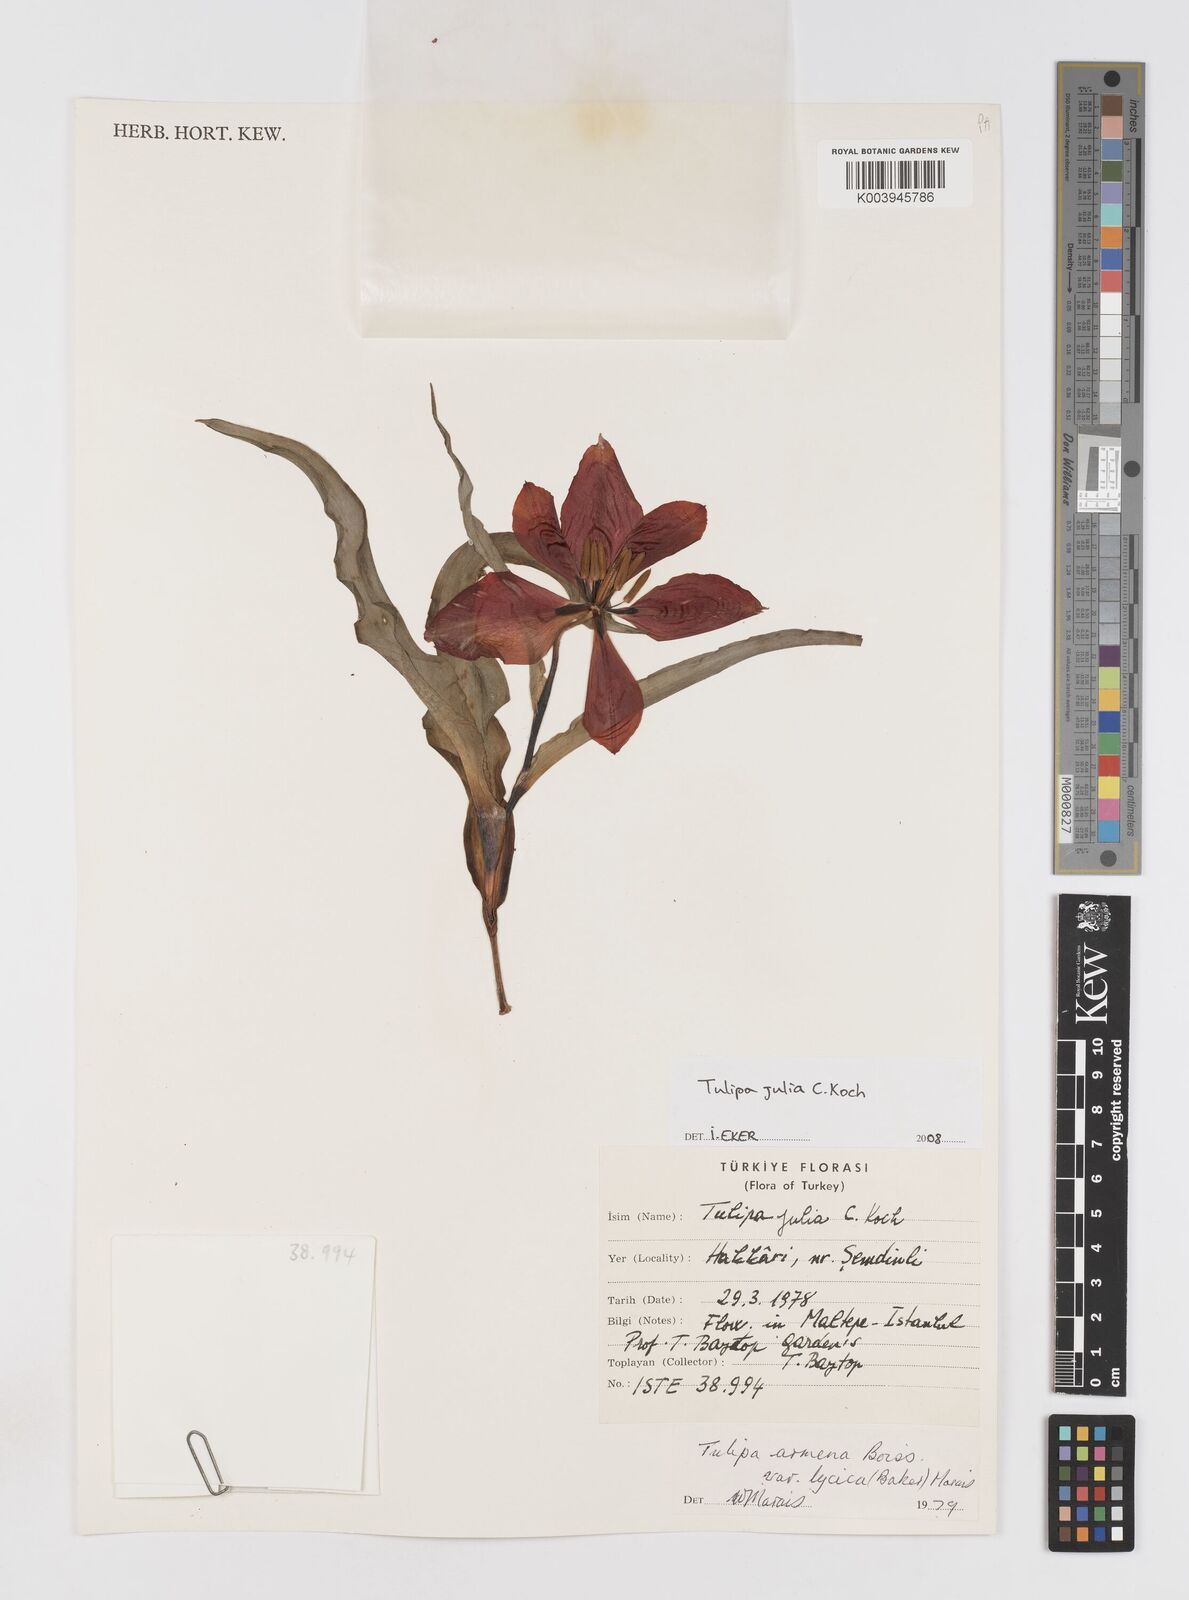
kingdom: Plantae
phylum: Tracheophyta
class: Liliopsida
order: Liliales
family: Liliaceae
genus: Tulipa
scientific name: Tulipa foliosa
